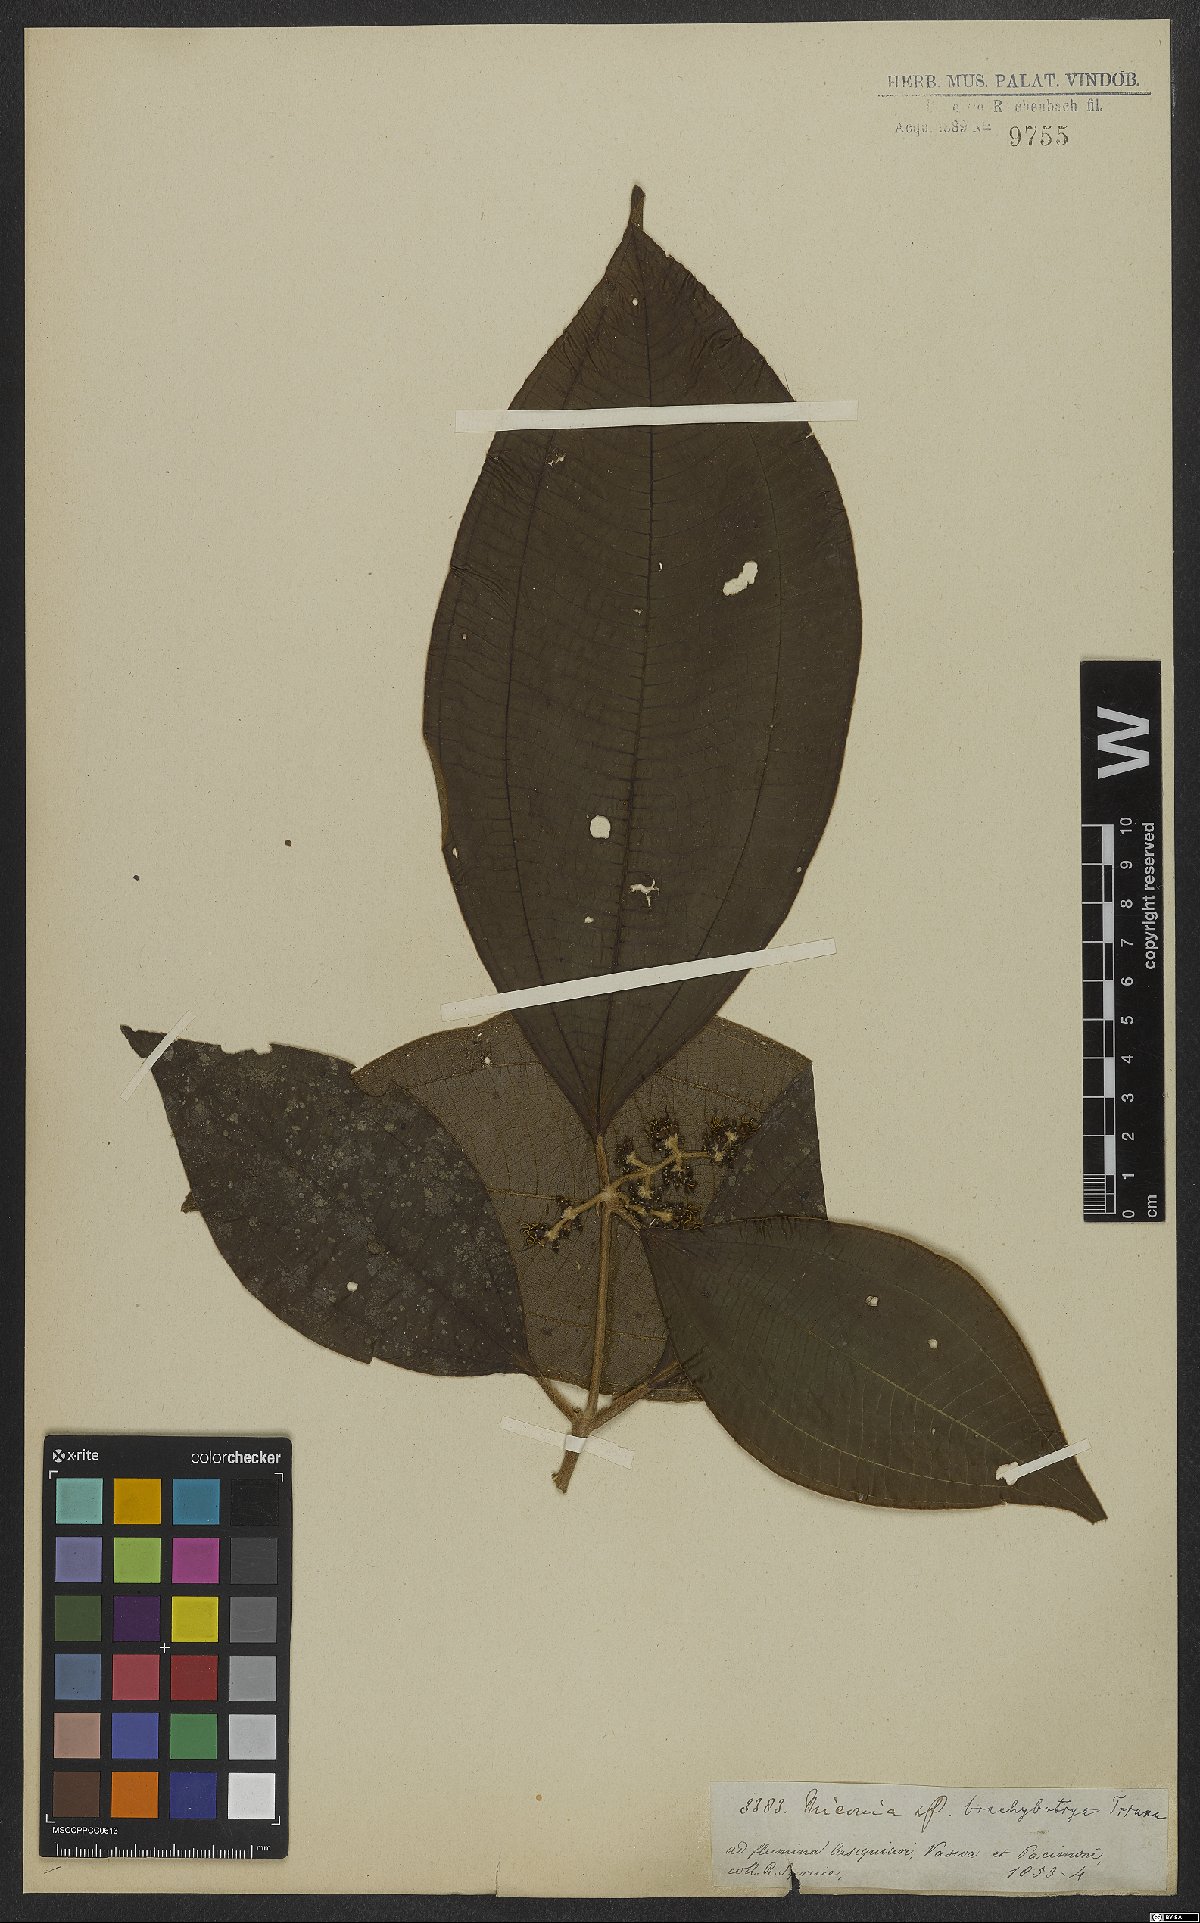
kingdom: Plantae
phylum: Tracheophyta
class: Magnoliopsida
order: Myrtales
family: Melastomataceae
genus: Miconia
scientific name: Miconia brachybotrya
